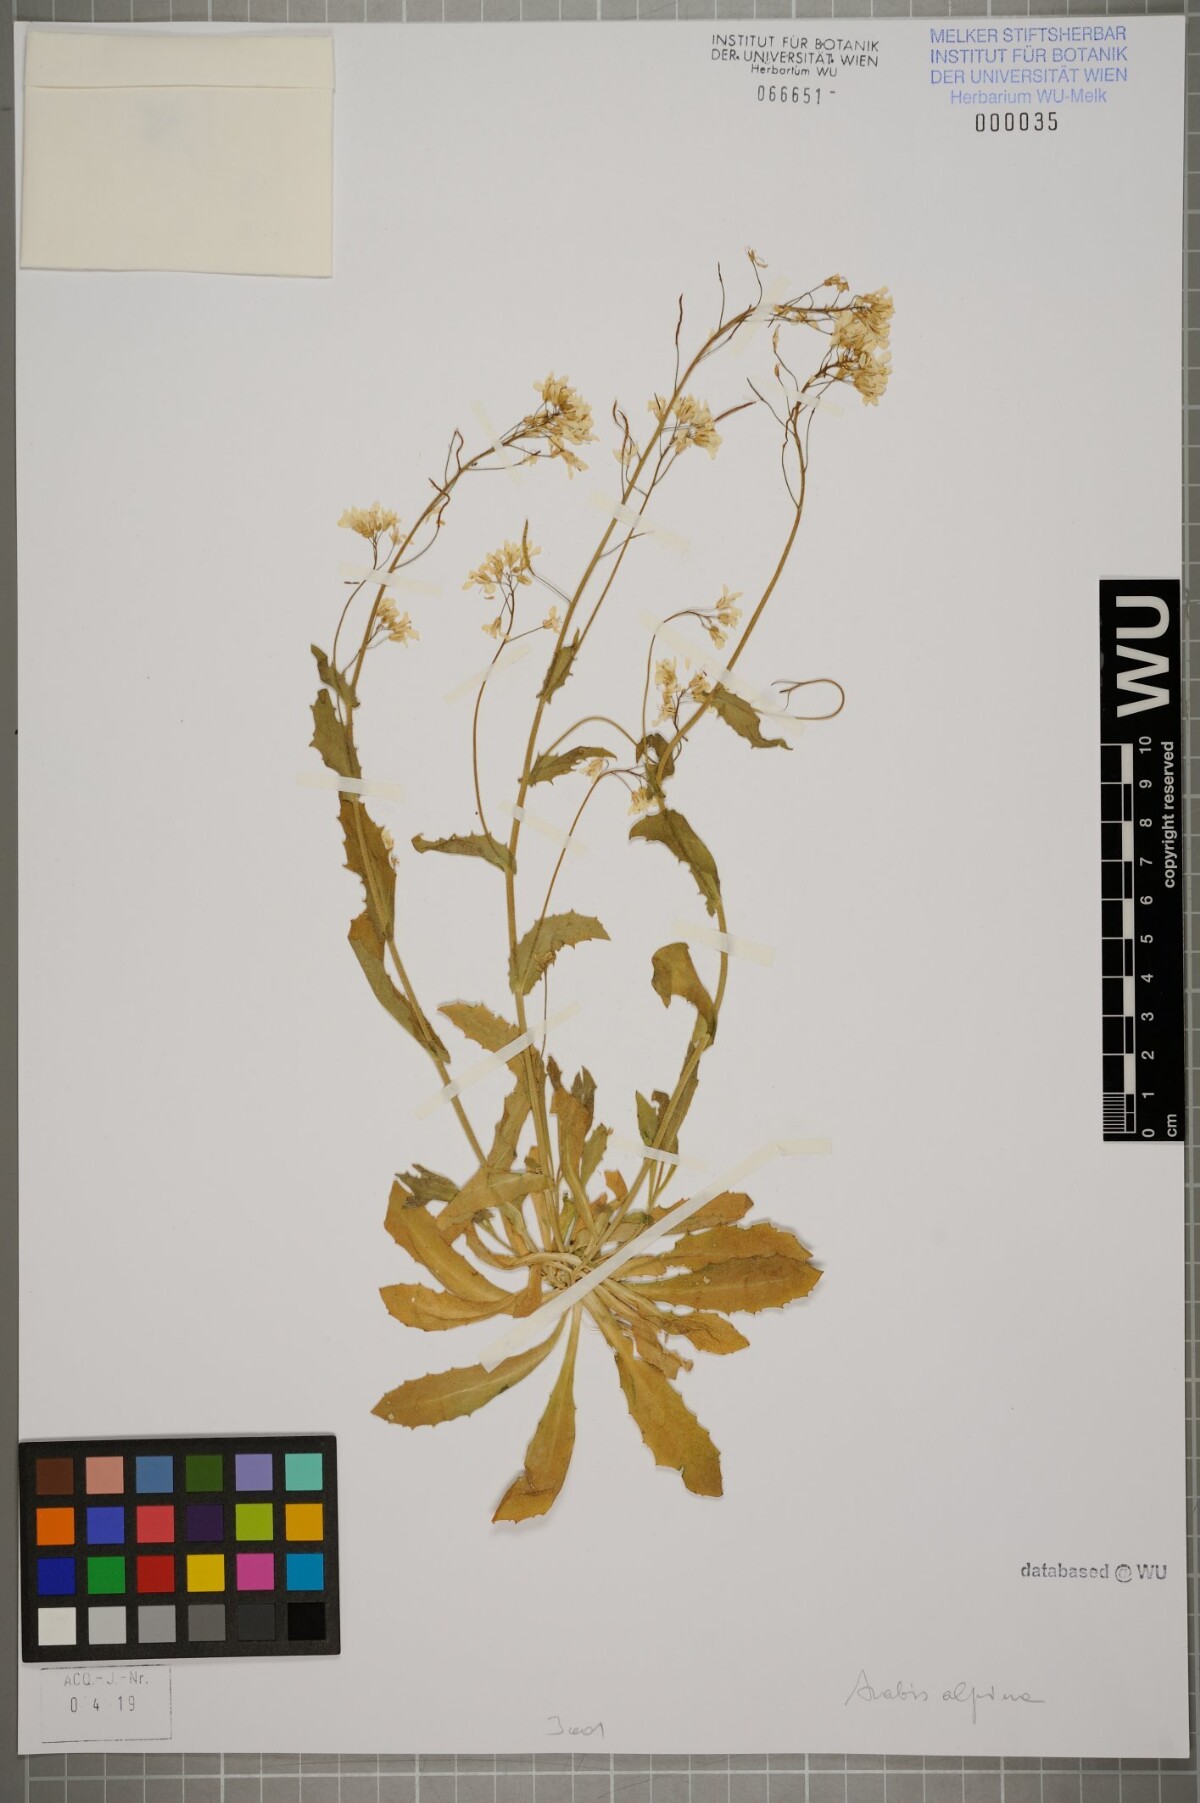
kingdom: Plantae
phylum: Tracheophyta
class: Magnoliopsida
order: Brassicales
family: Brassicaceae
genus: Arabis
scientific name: Arabis alpina
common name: Alpine rock-cress
